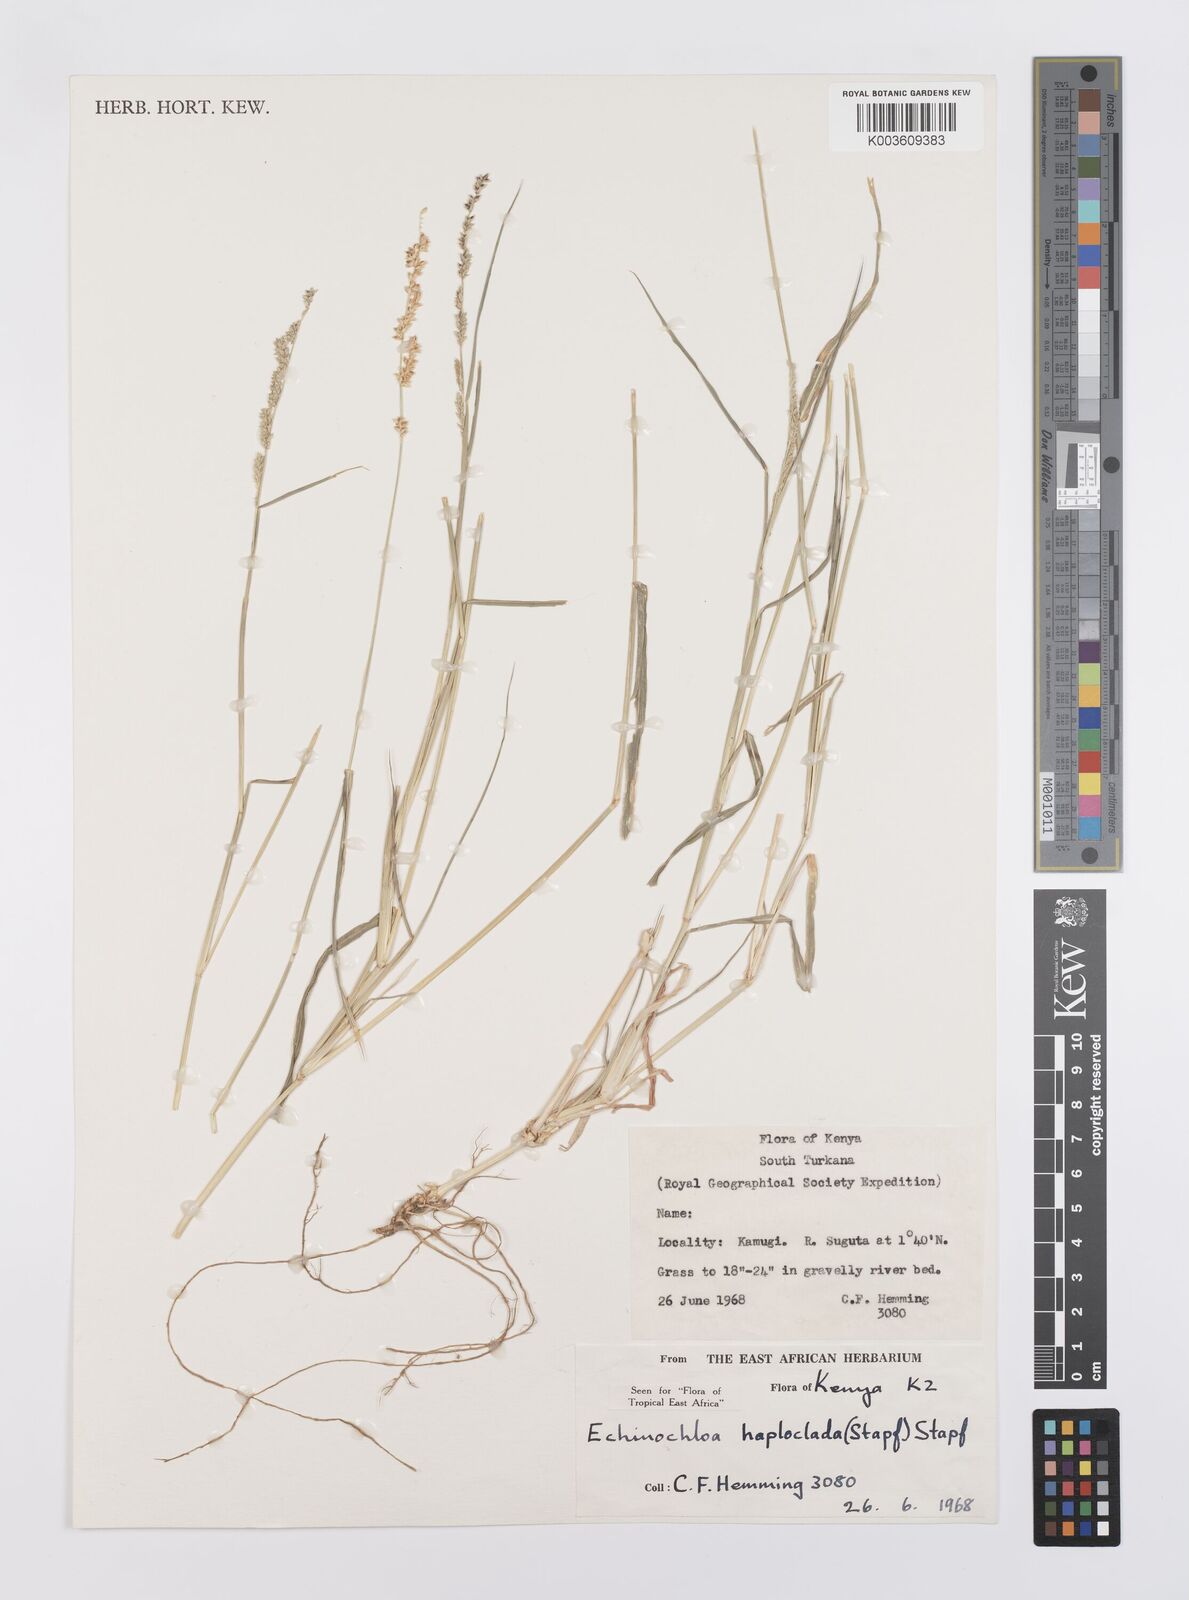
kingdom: Plantae
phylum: Tracheophyta
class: Liliopsida
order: Poales
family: Poaceae
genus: Echinochloa
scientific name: Echinochloa haploclada
